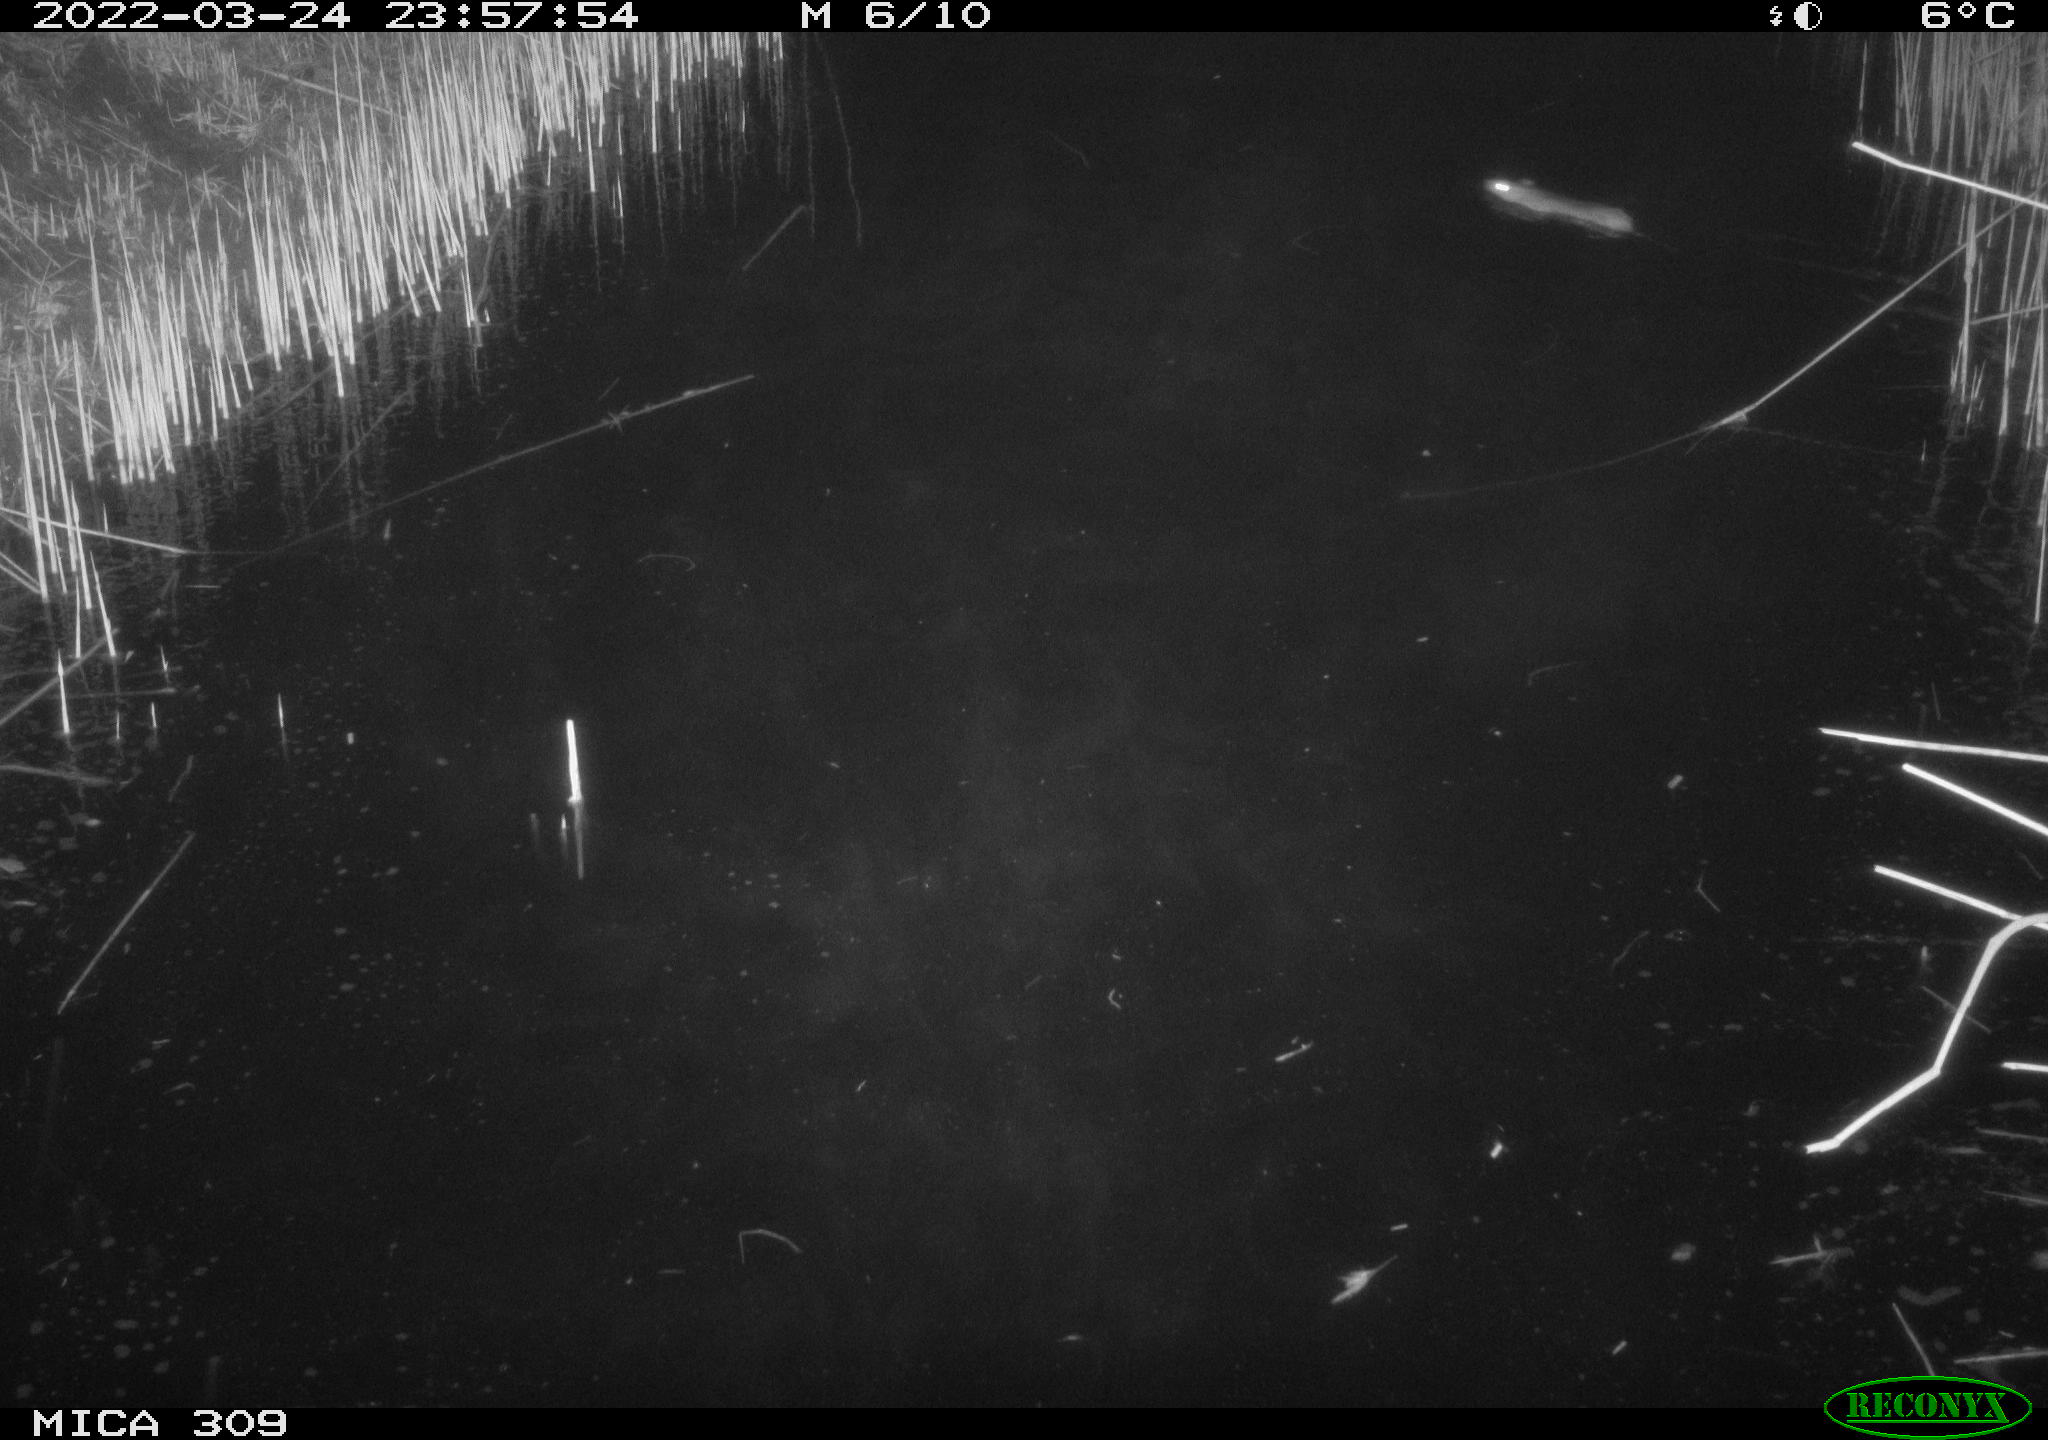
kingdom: Animalia
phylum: Chordata
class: Mammalia
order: Rodentia
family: Muridae
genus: Rattus
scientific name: Rattus norvegicus
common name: Brown rat
